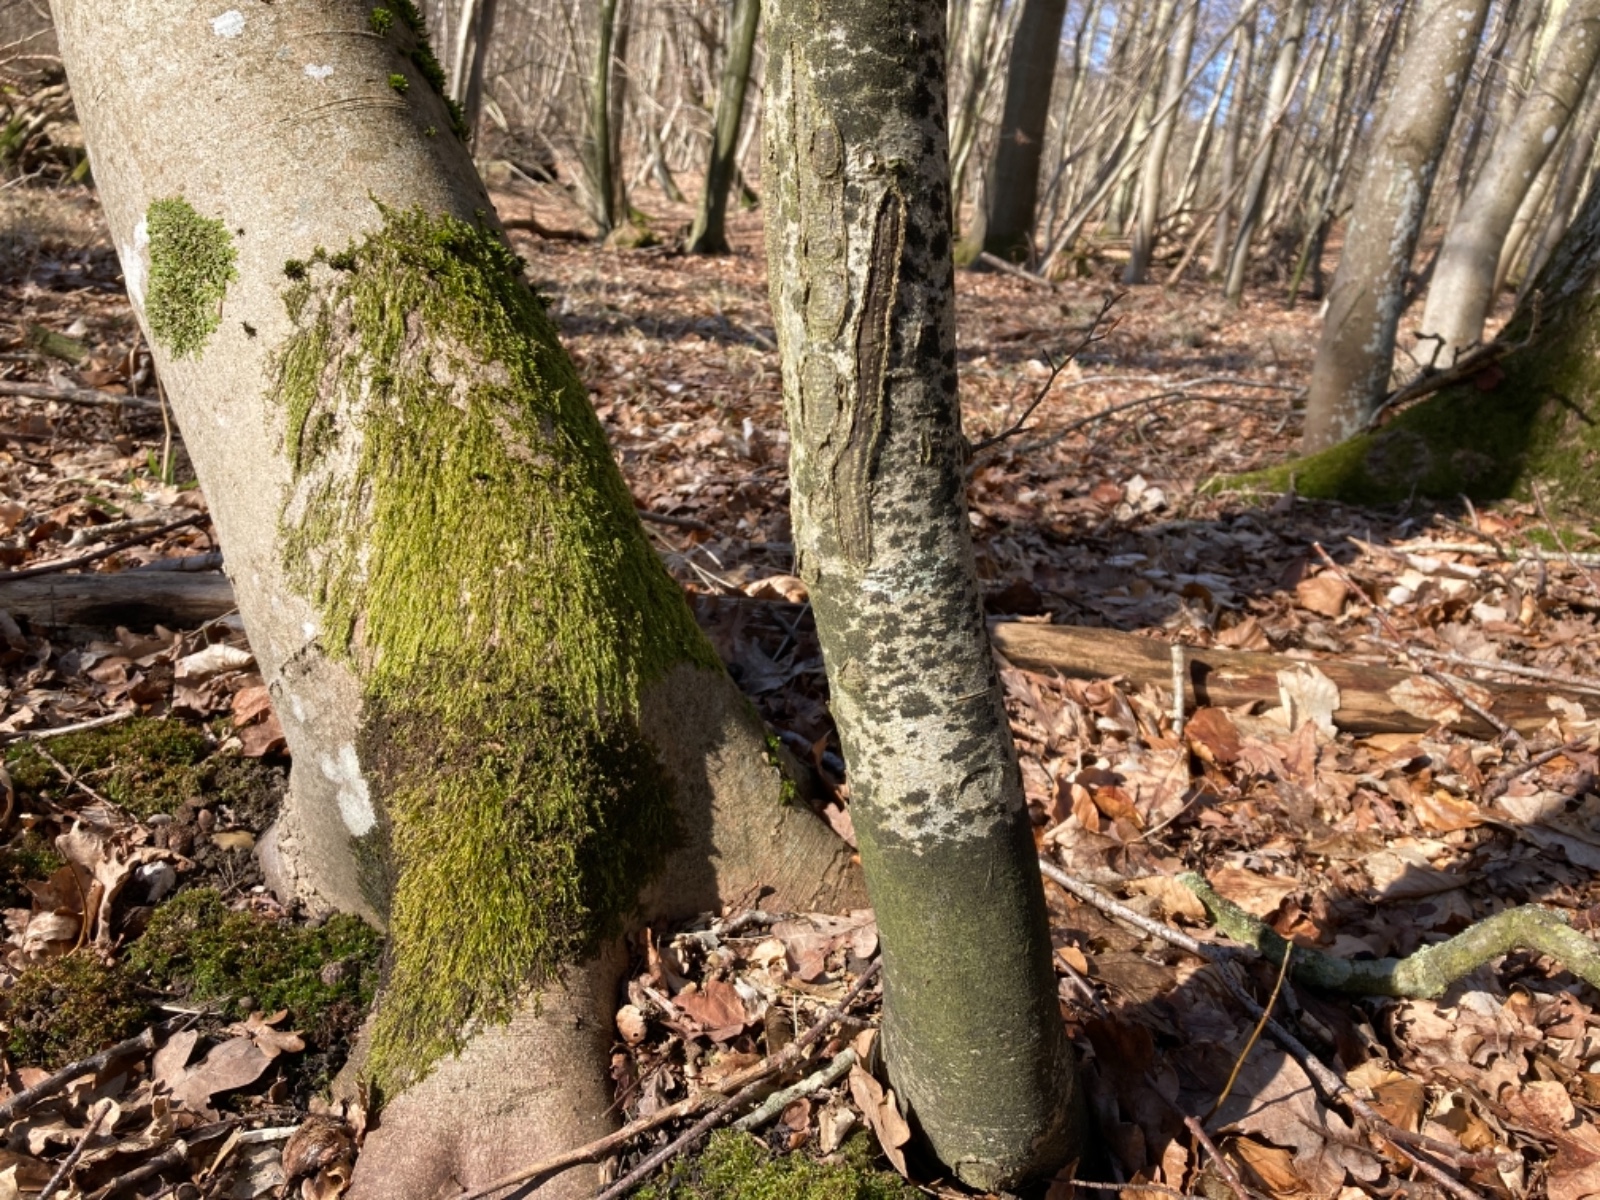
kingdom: Fungi
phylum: Ascomycota
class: Leotiomycetes
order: Rhytismatales
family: Ascodichaenaceae
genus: Ascodichaena
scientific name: Ascodichaena rugosa
